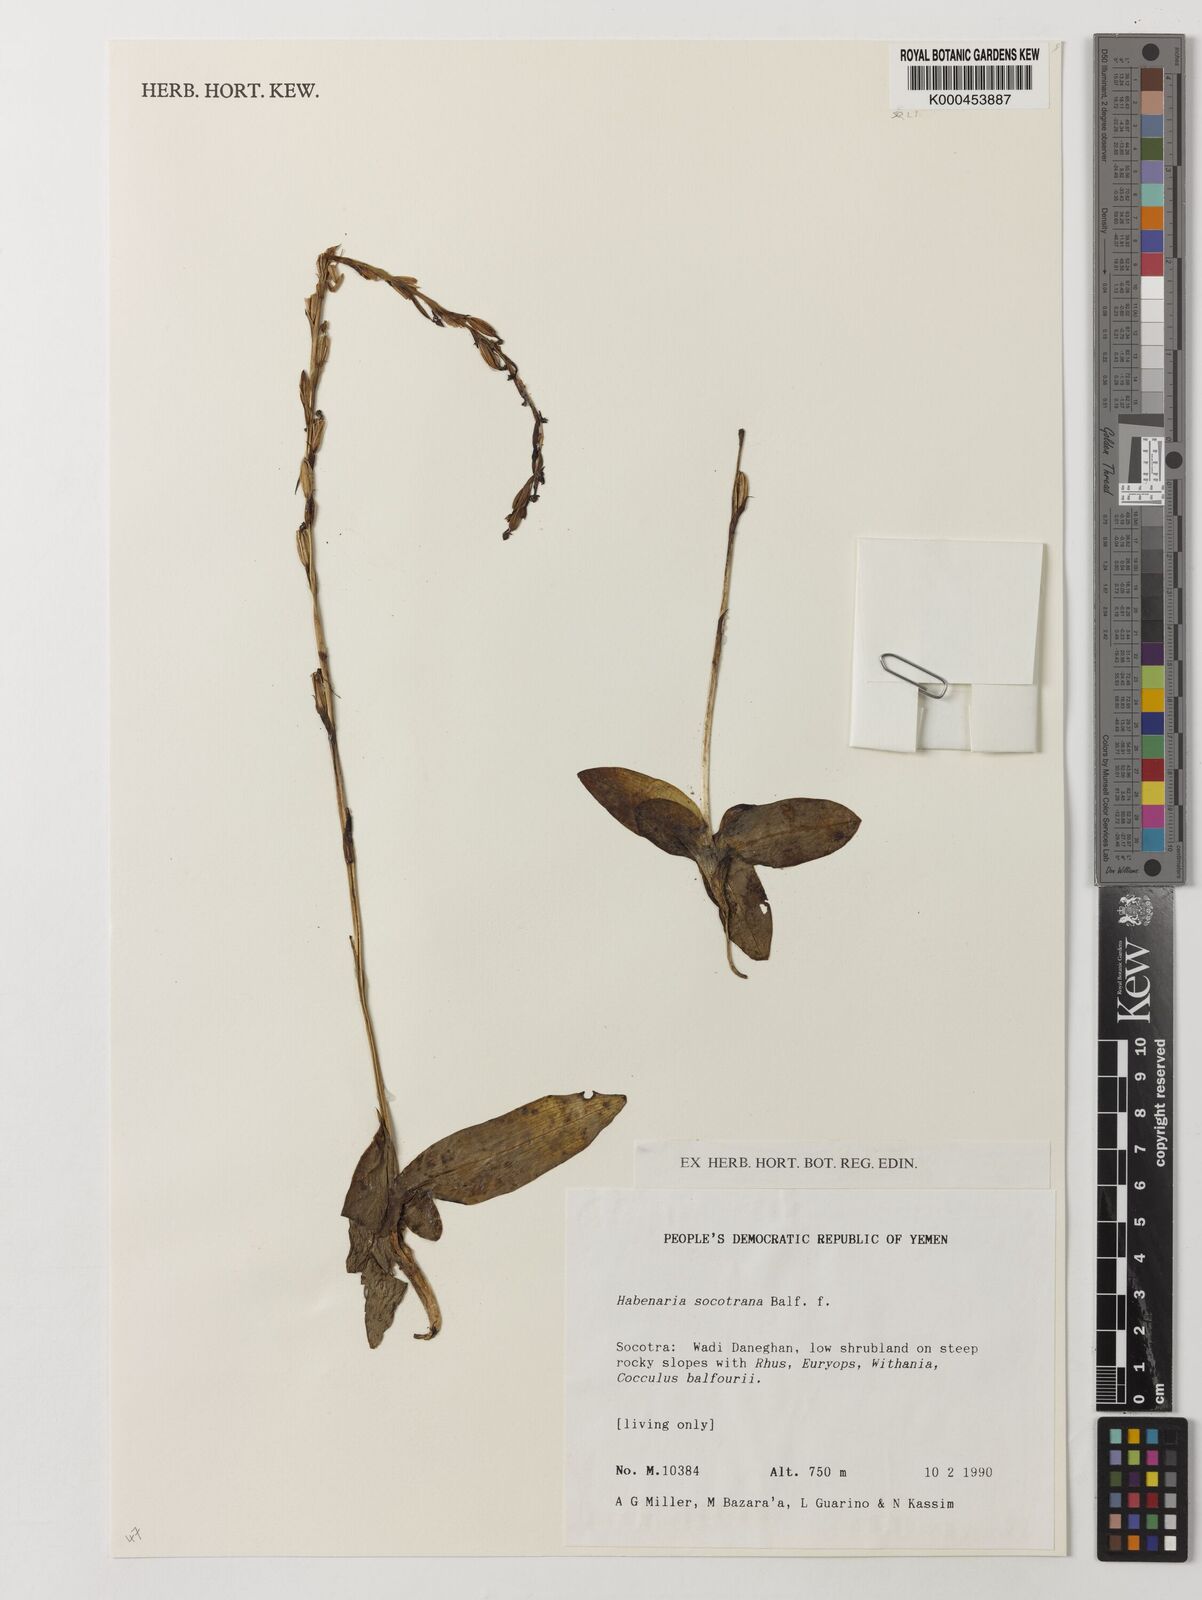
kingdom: Plantae
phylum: Tracheophyta
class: Liliopsida
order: Asparagales
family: Orchidaceae
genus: Habenaria
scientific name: Habenaria socotrana
